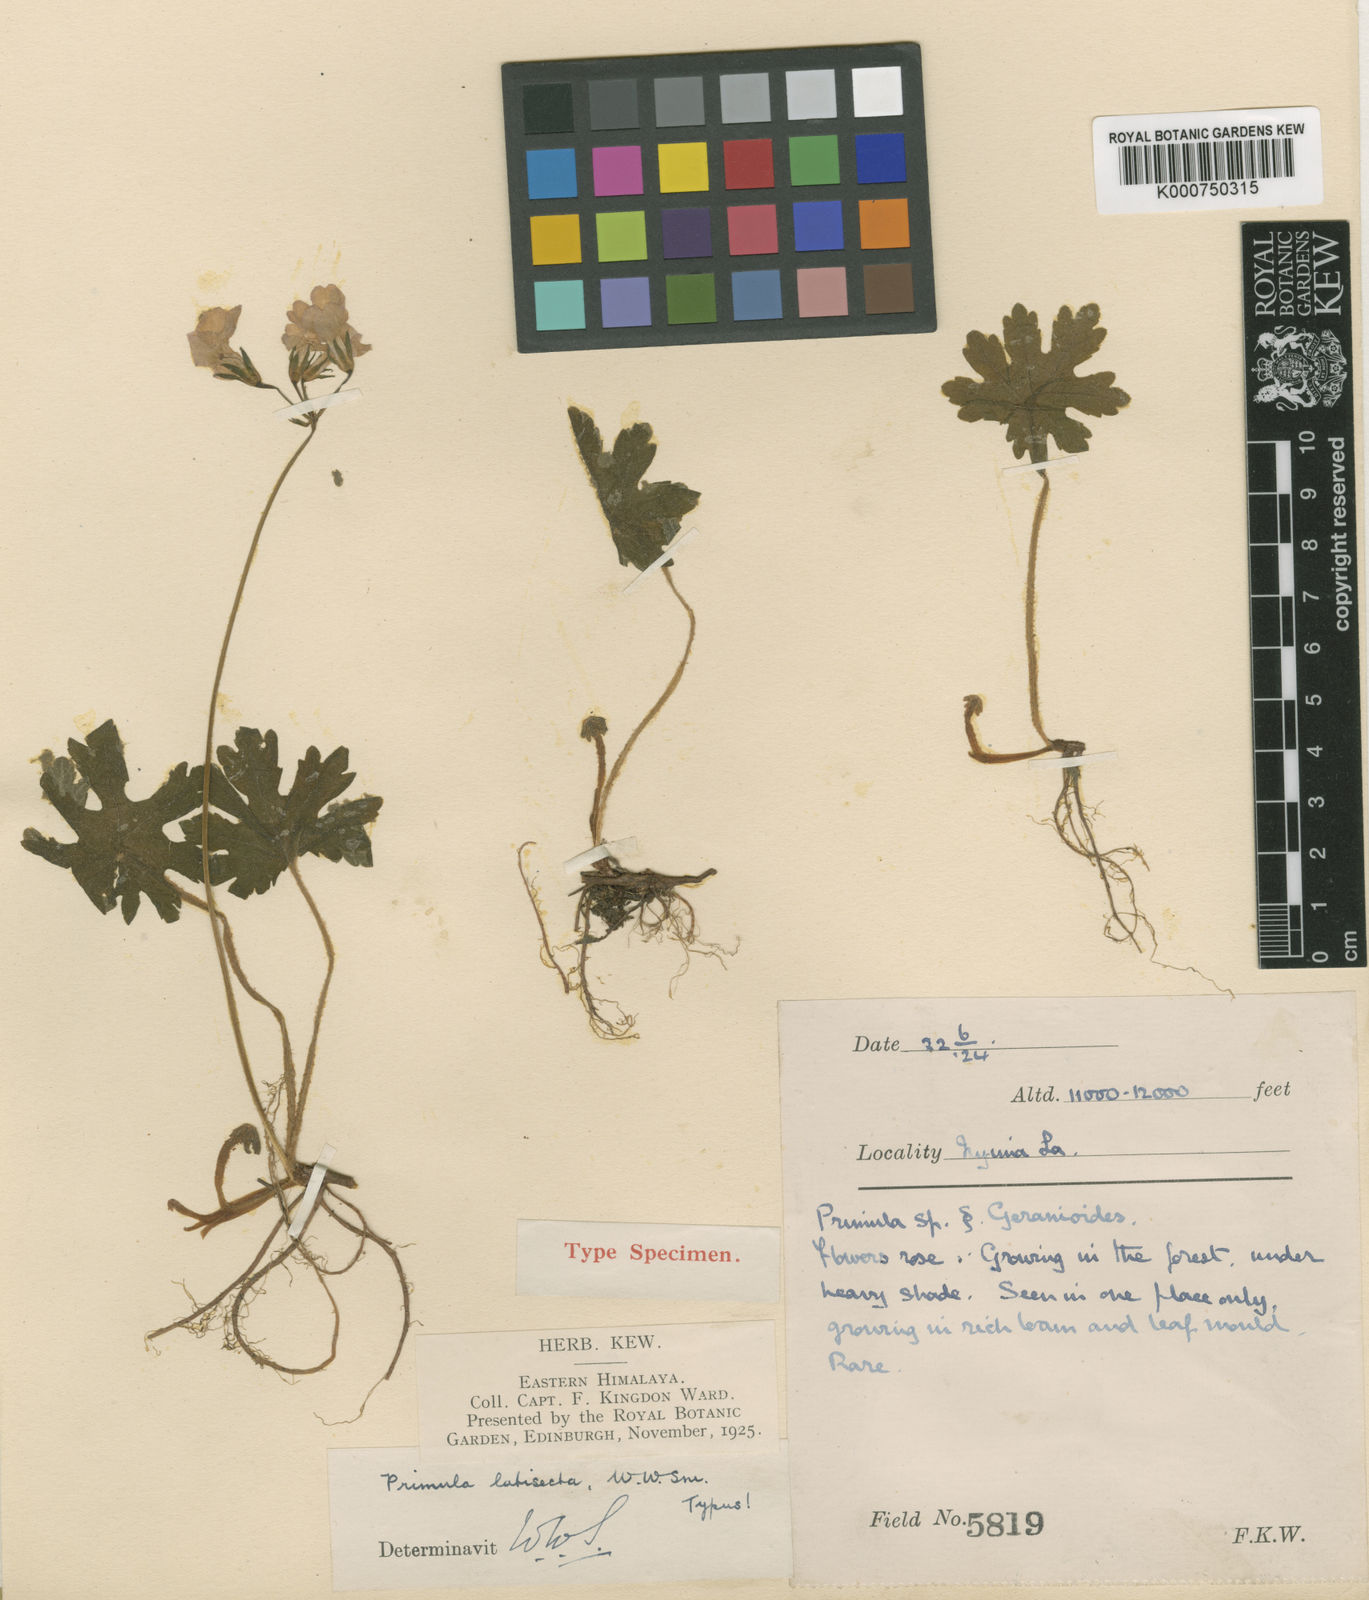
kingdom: Plantae
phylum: Tracheophyta
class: Magnoliopsida
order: Ericales
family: Primulaceae
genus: Primula
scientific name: Primula latisecta
